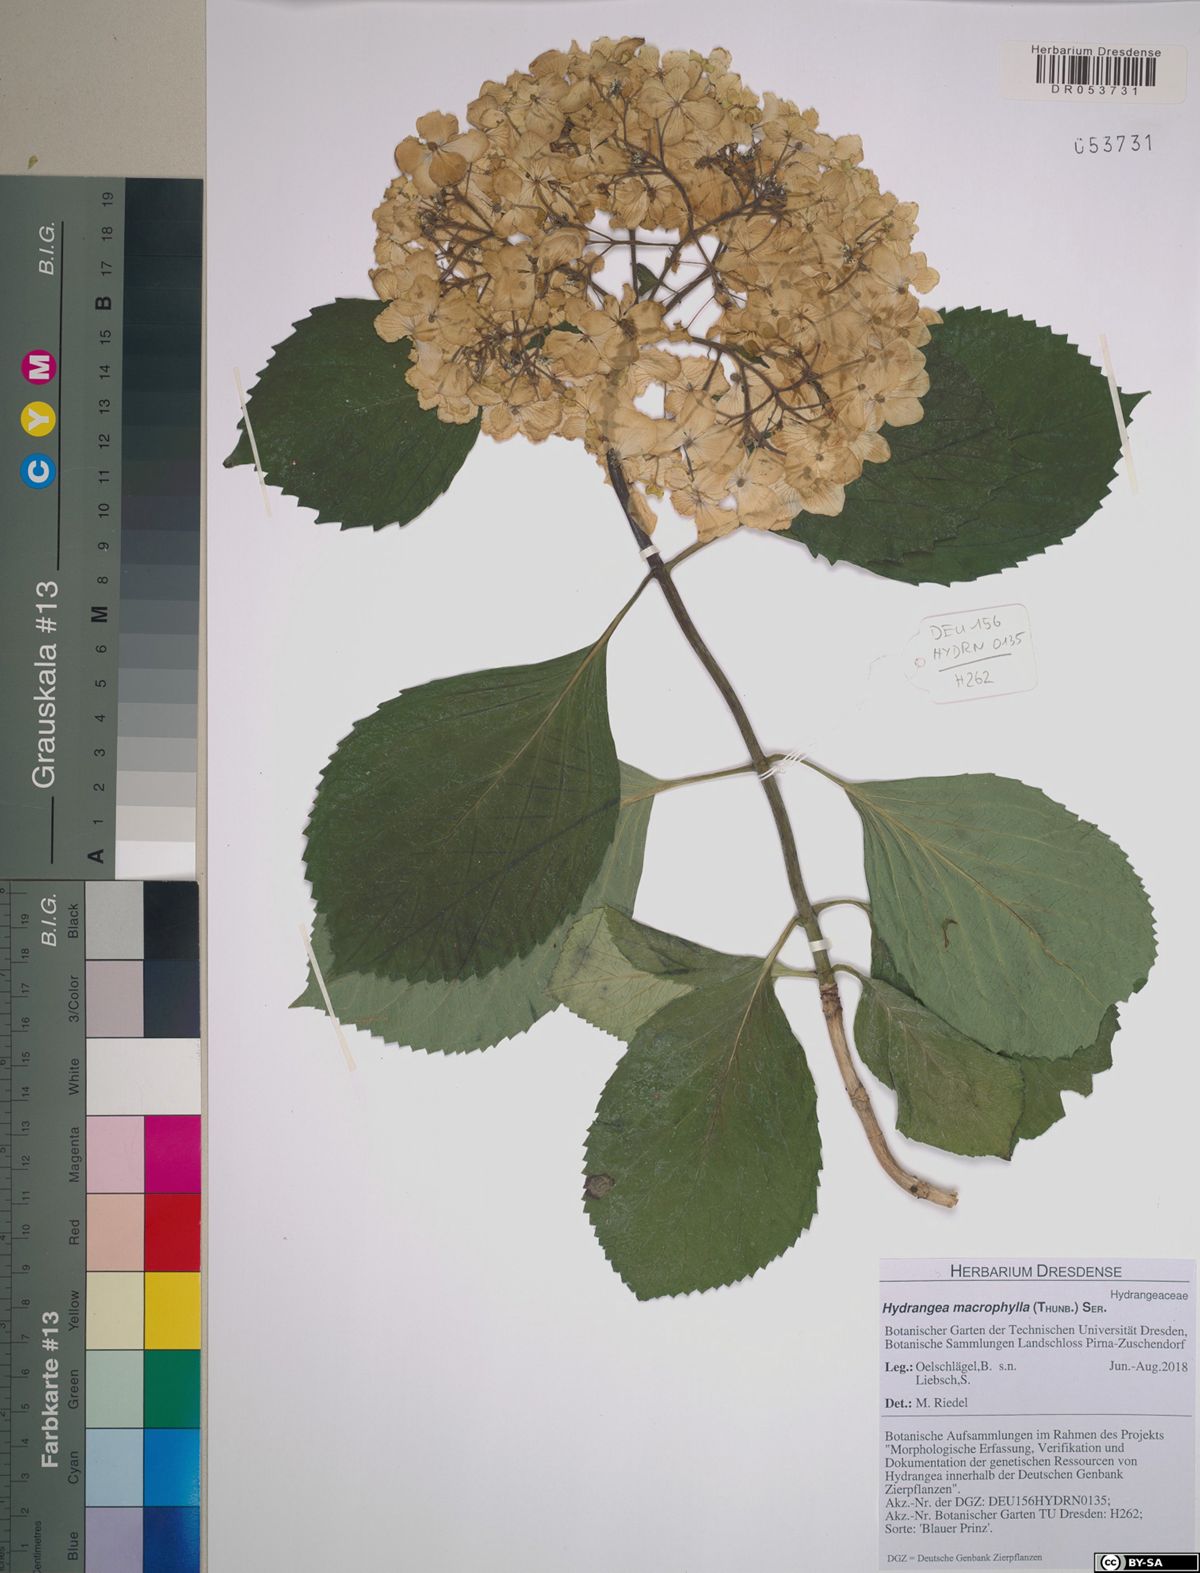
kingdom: Plantae
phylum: Tracheophyta
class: Magnoliopsida
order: Cornales
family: Hydrangeaceae
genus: Hydrangea
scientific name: Hydrangea macrophylla
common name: Hydrangea
